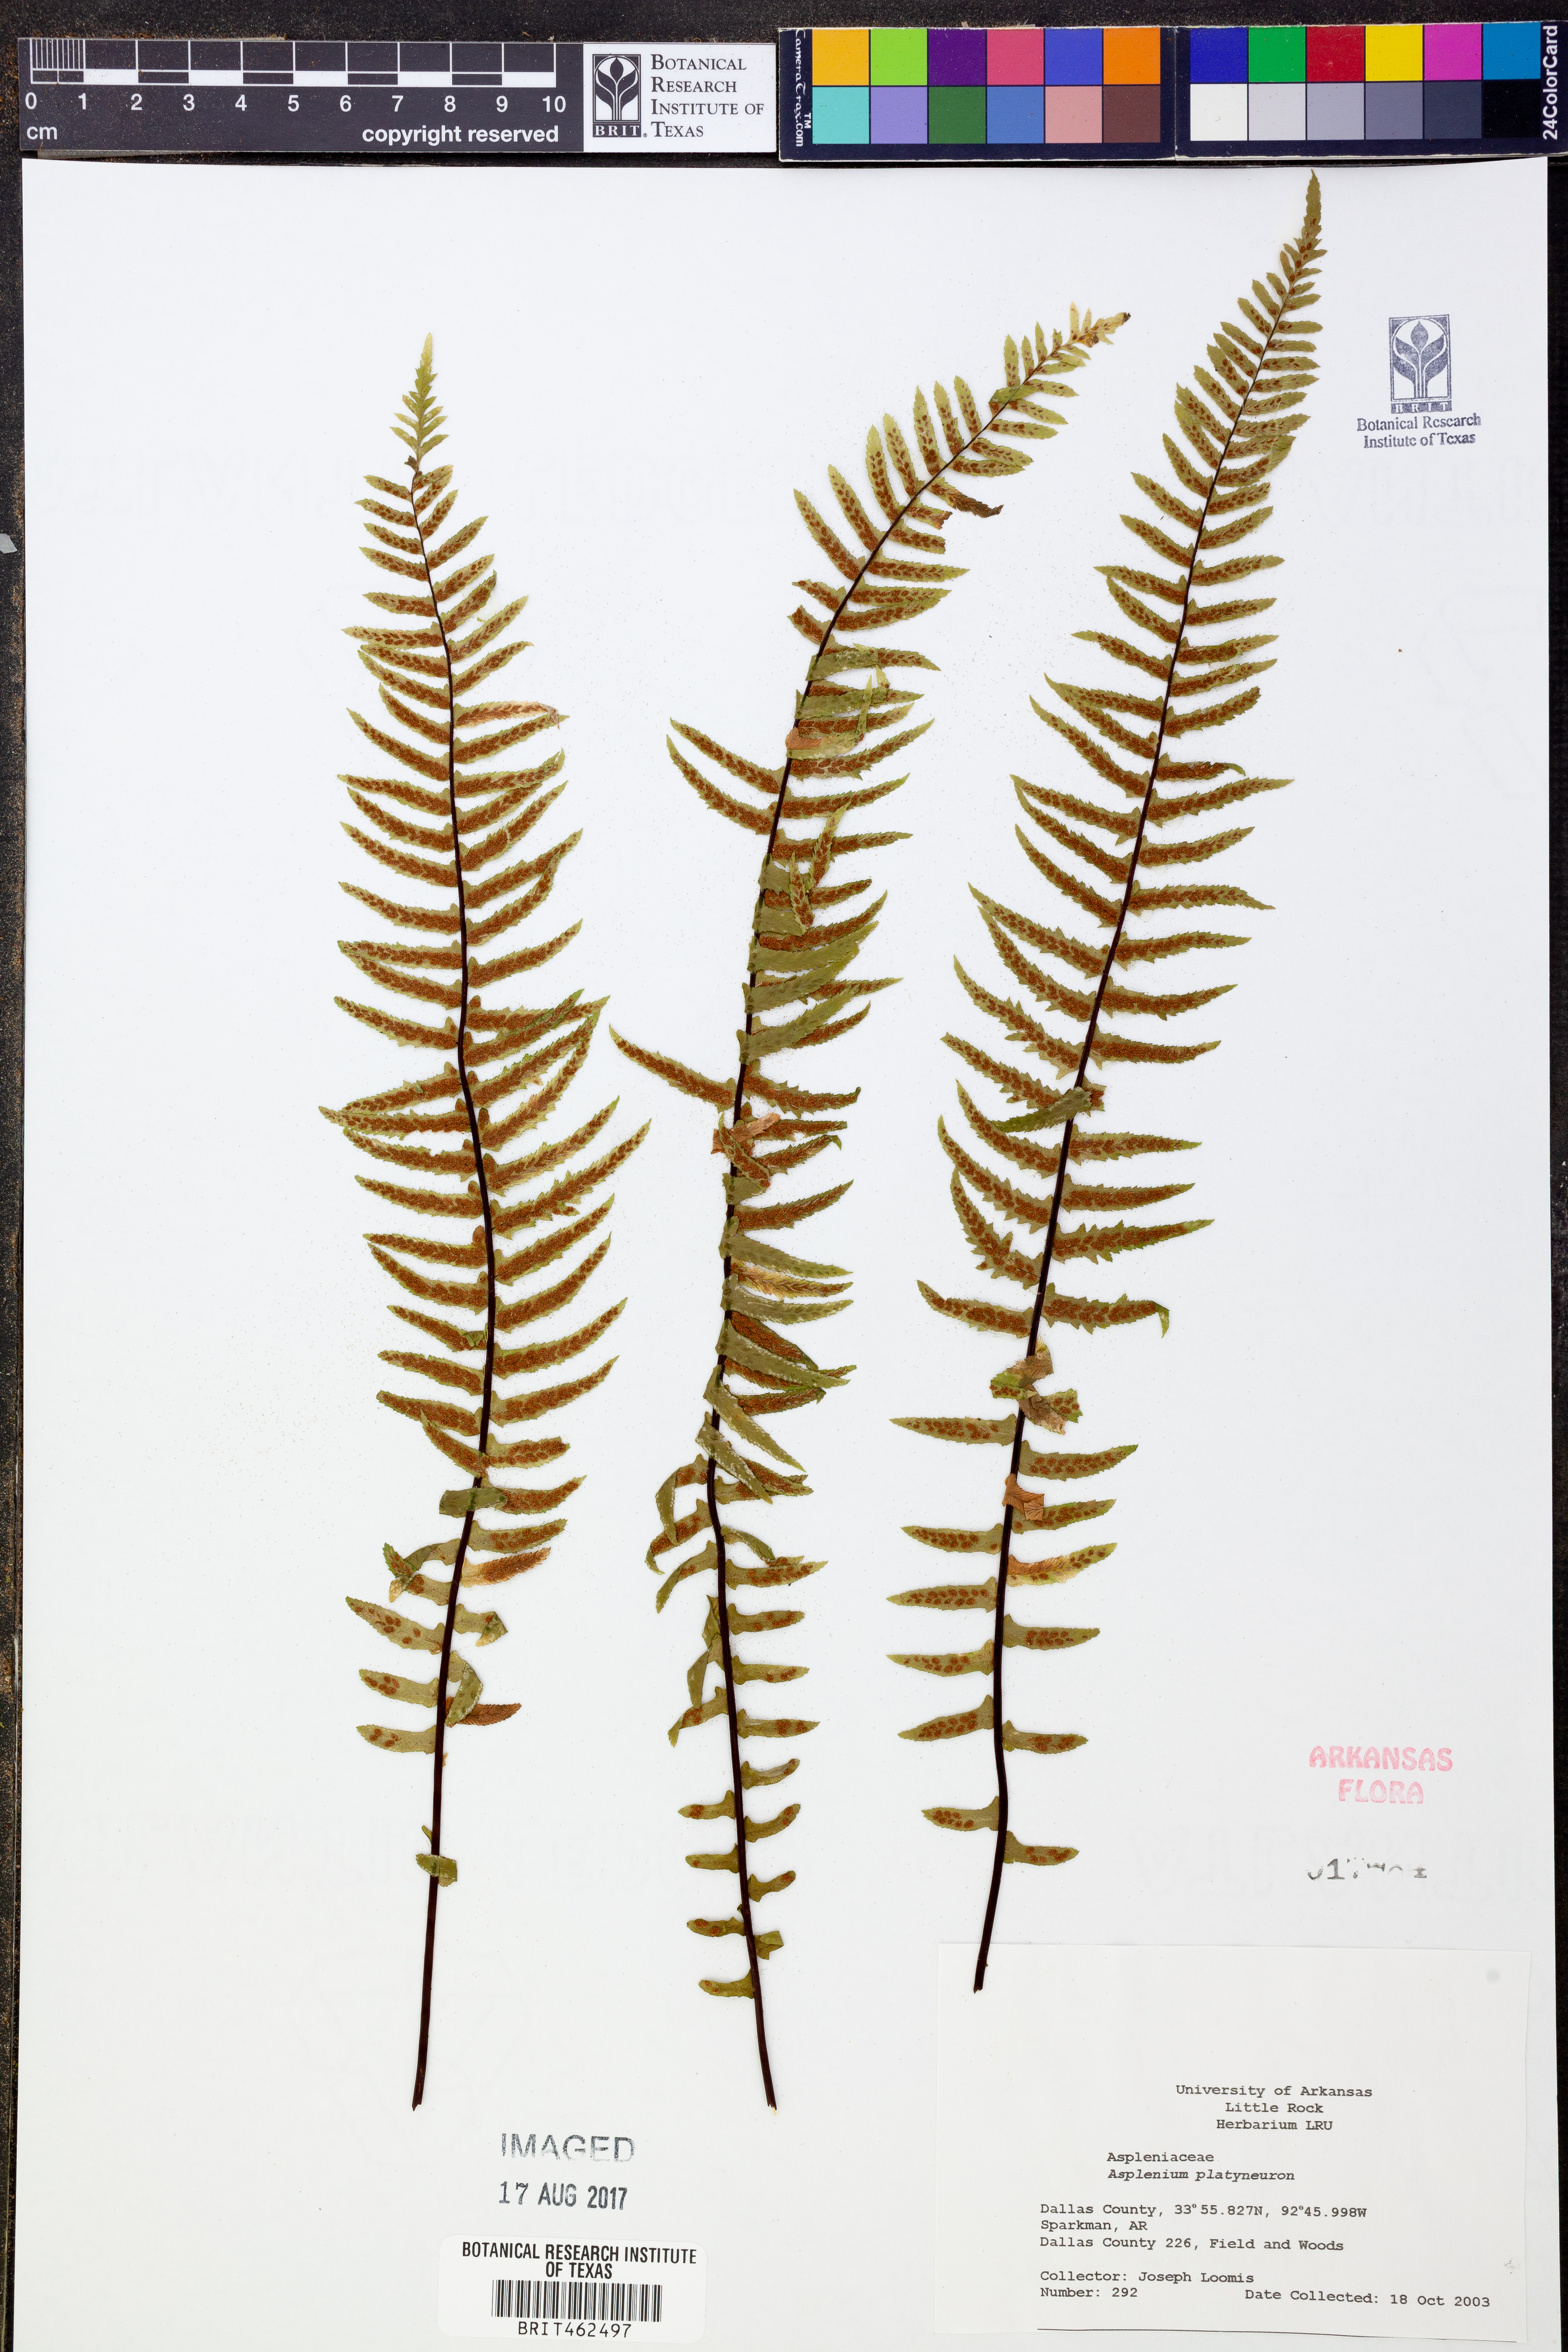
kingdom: Plantae
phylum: Tracheophyta
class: Polypodiopsida
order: Polypodiales
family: Aspleniaceae
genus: Asplenium
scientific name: Asplenium platyneuron
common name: Ebony spleenwort
